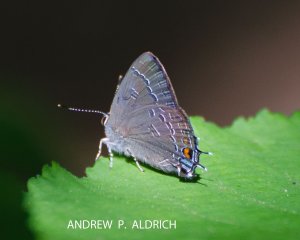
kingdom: Animalia
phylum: Arthropoda
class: Insecta
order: Lepidoptera
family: Lycaenidae
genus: Satyrium
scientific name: Satyrium calanus
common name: Banded Hairstreak
